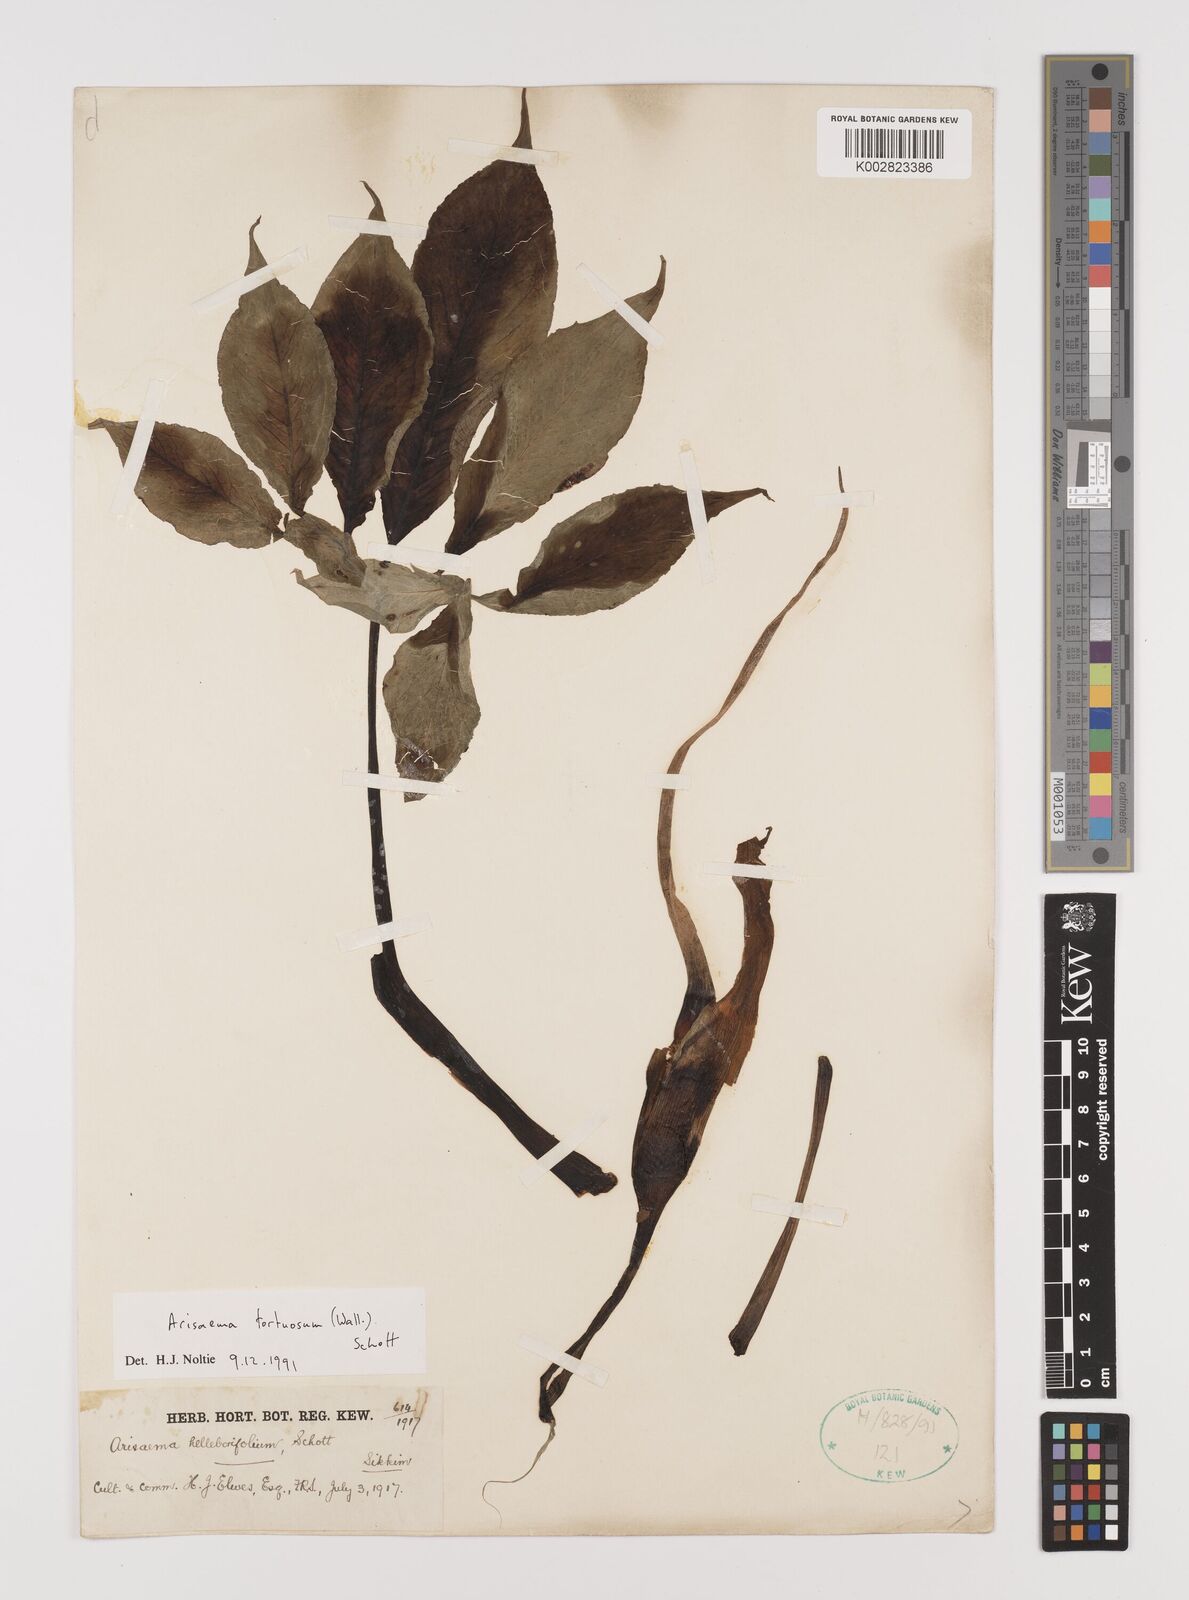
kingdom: Plantae
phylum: Tracheophyta
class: Liliopsida
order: Alismatales
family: Araceae
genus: Arisaema
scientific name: Arisaema tortuosum
